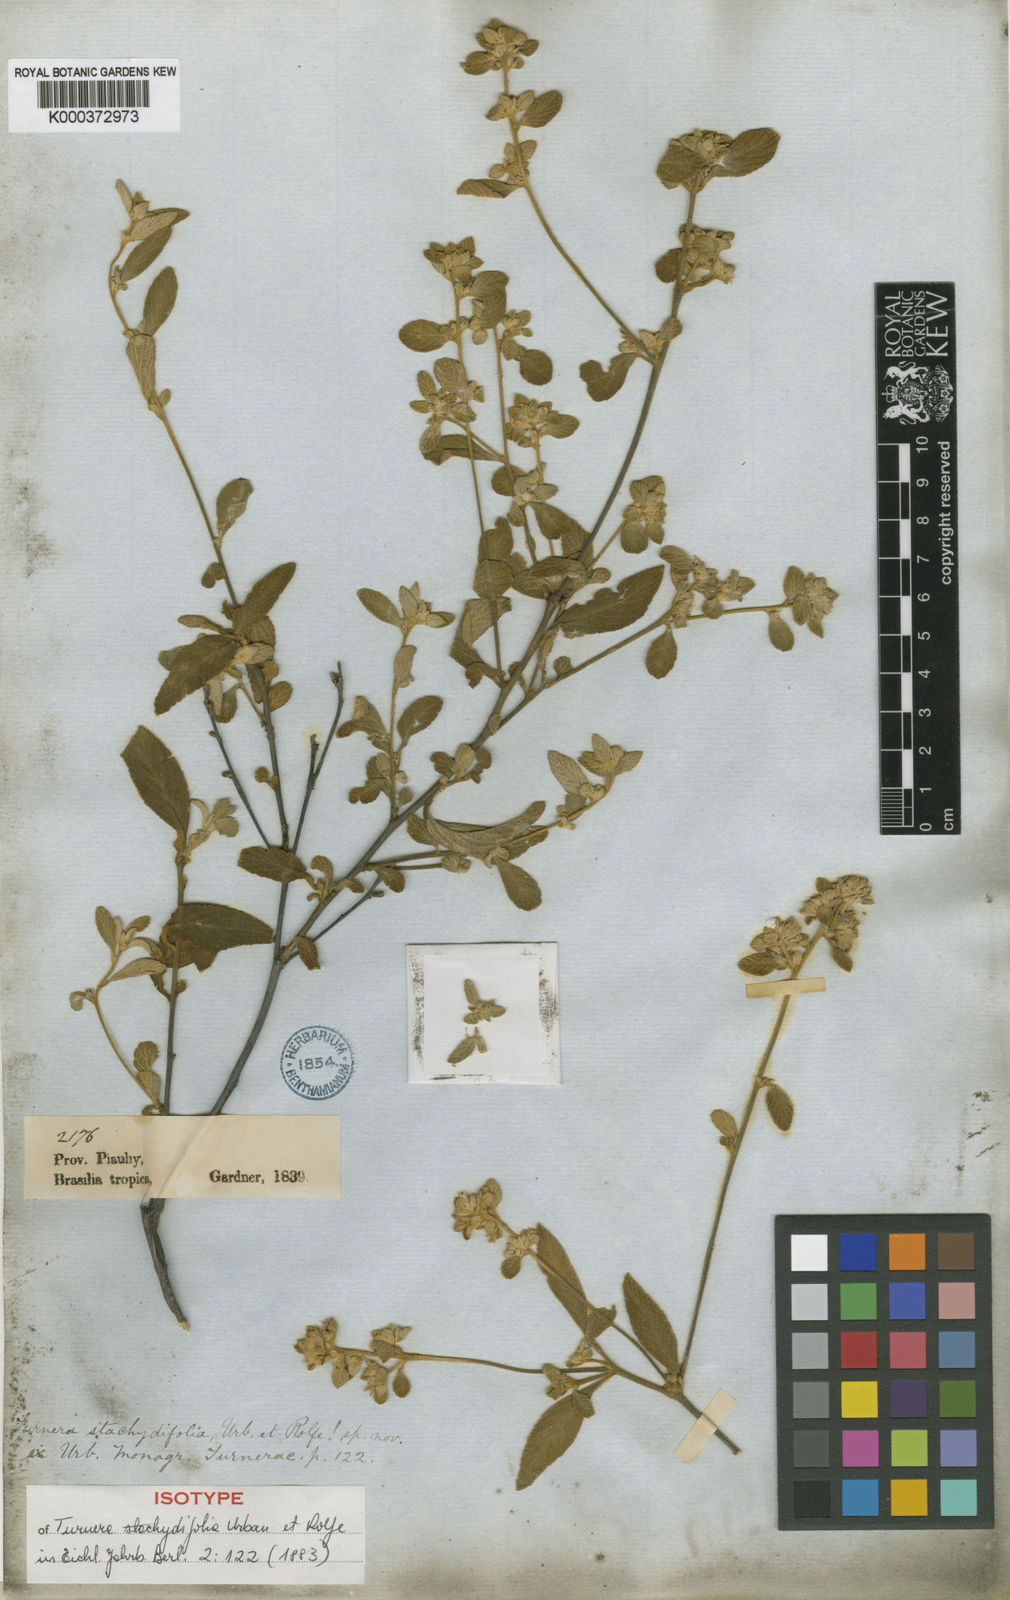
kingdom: Plantae
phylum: Tracheophyta
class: Magnoliopsida
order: Malpighiales
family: Turneraceae
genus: Turnera
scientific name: Turnera stachydifolia
